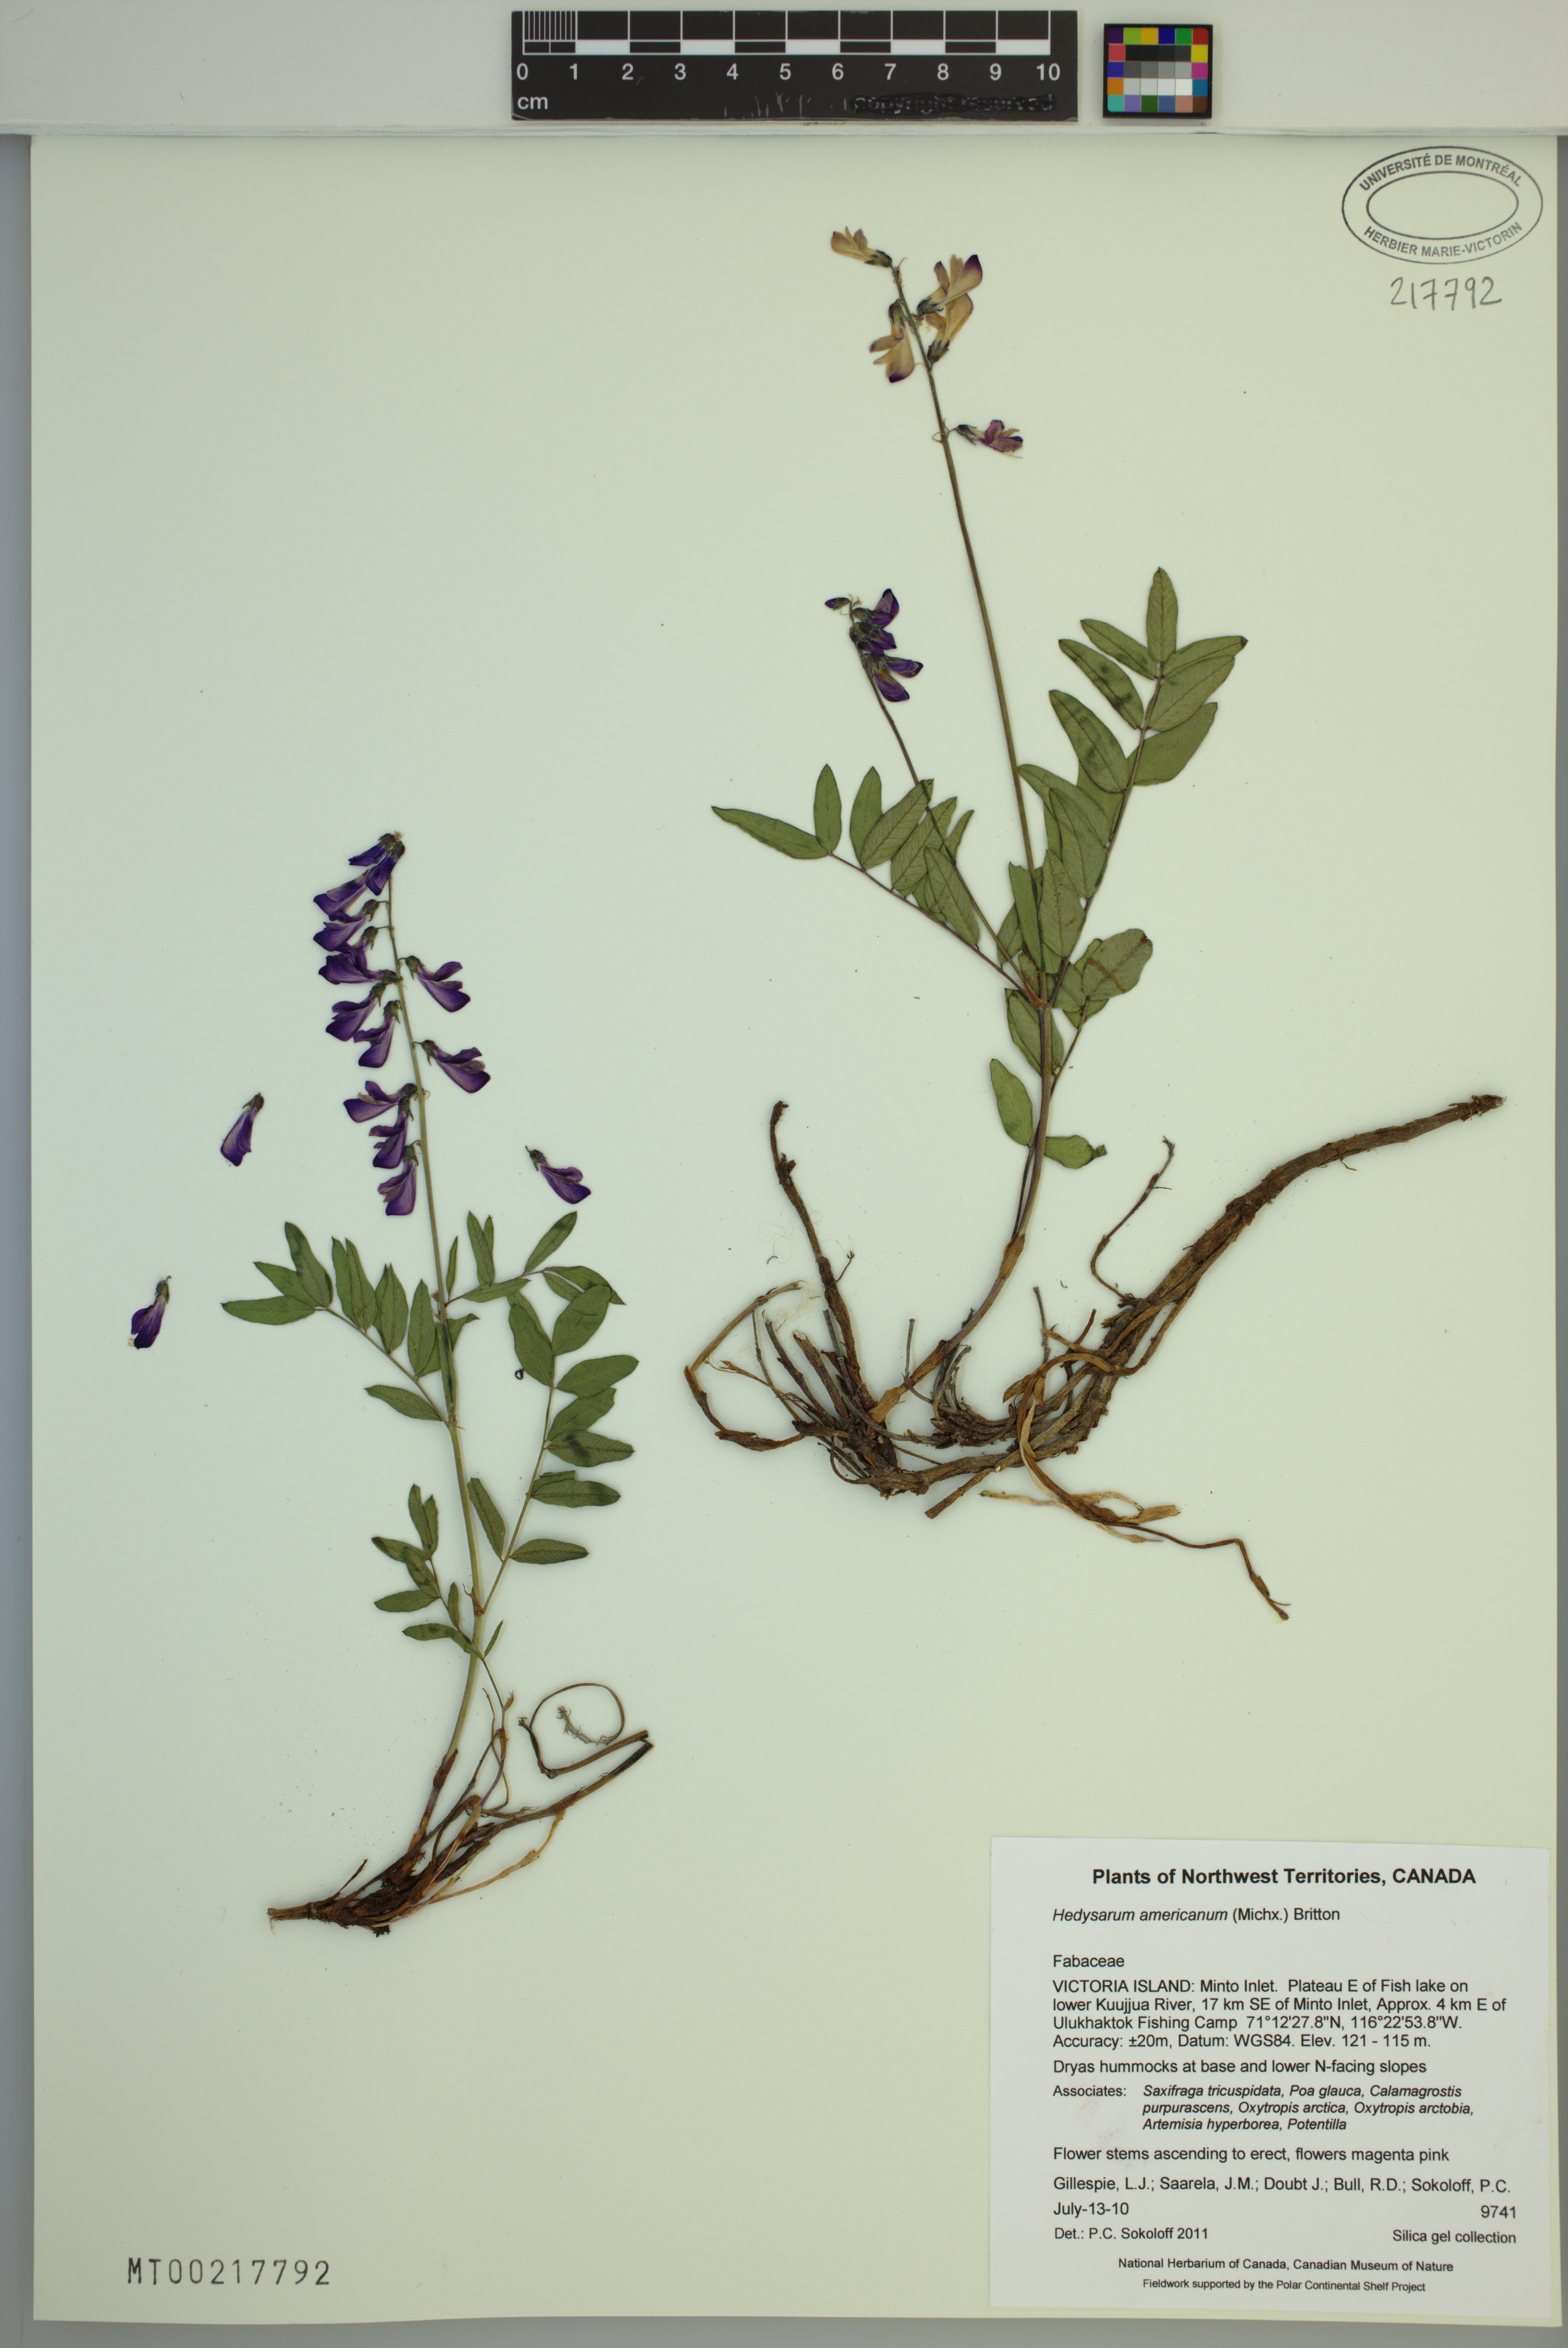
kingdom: Plantae
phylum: Tracheophyta
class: Magnoliopsida
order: Fabales
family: Fabaceae
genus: Hedysarum
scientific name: Hedysarum americanum
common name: Alpine hedysarum
